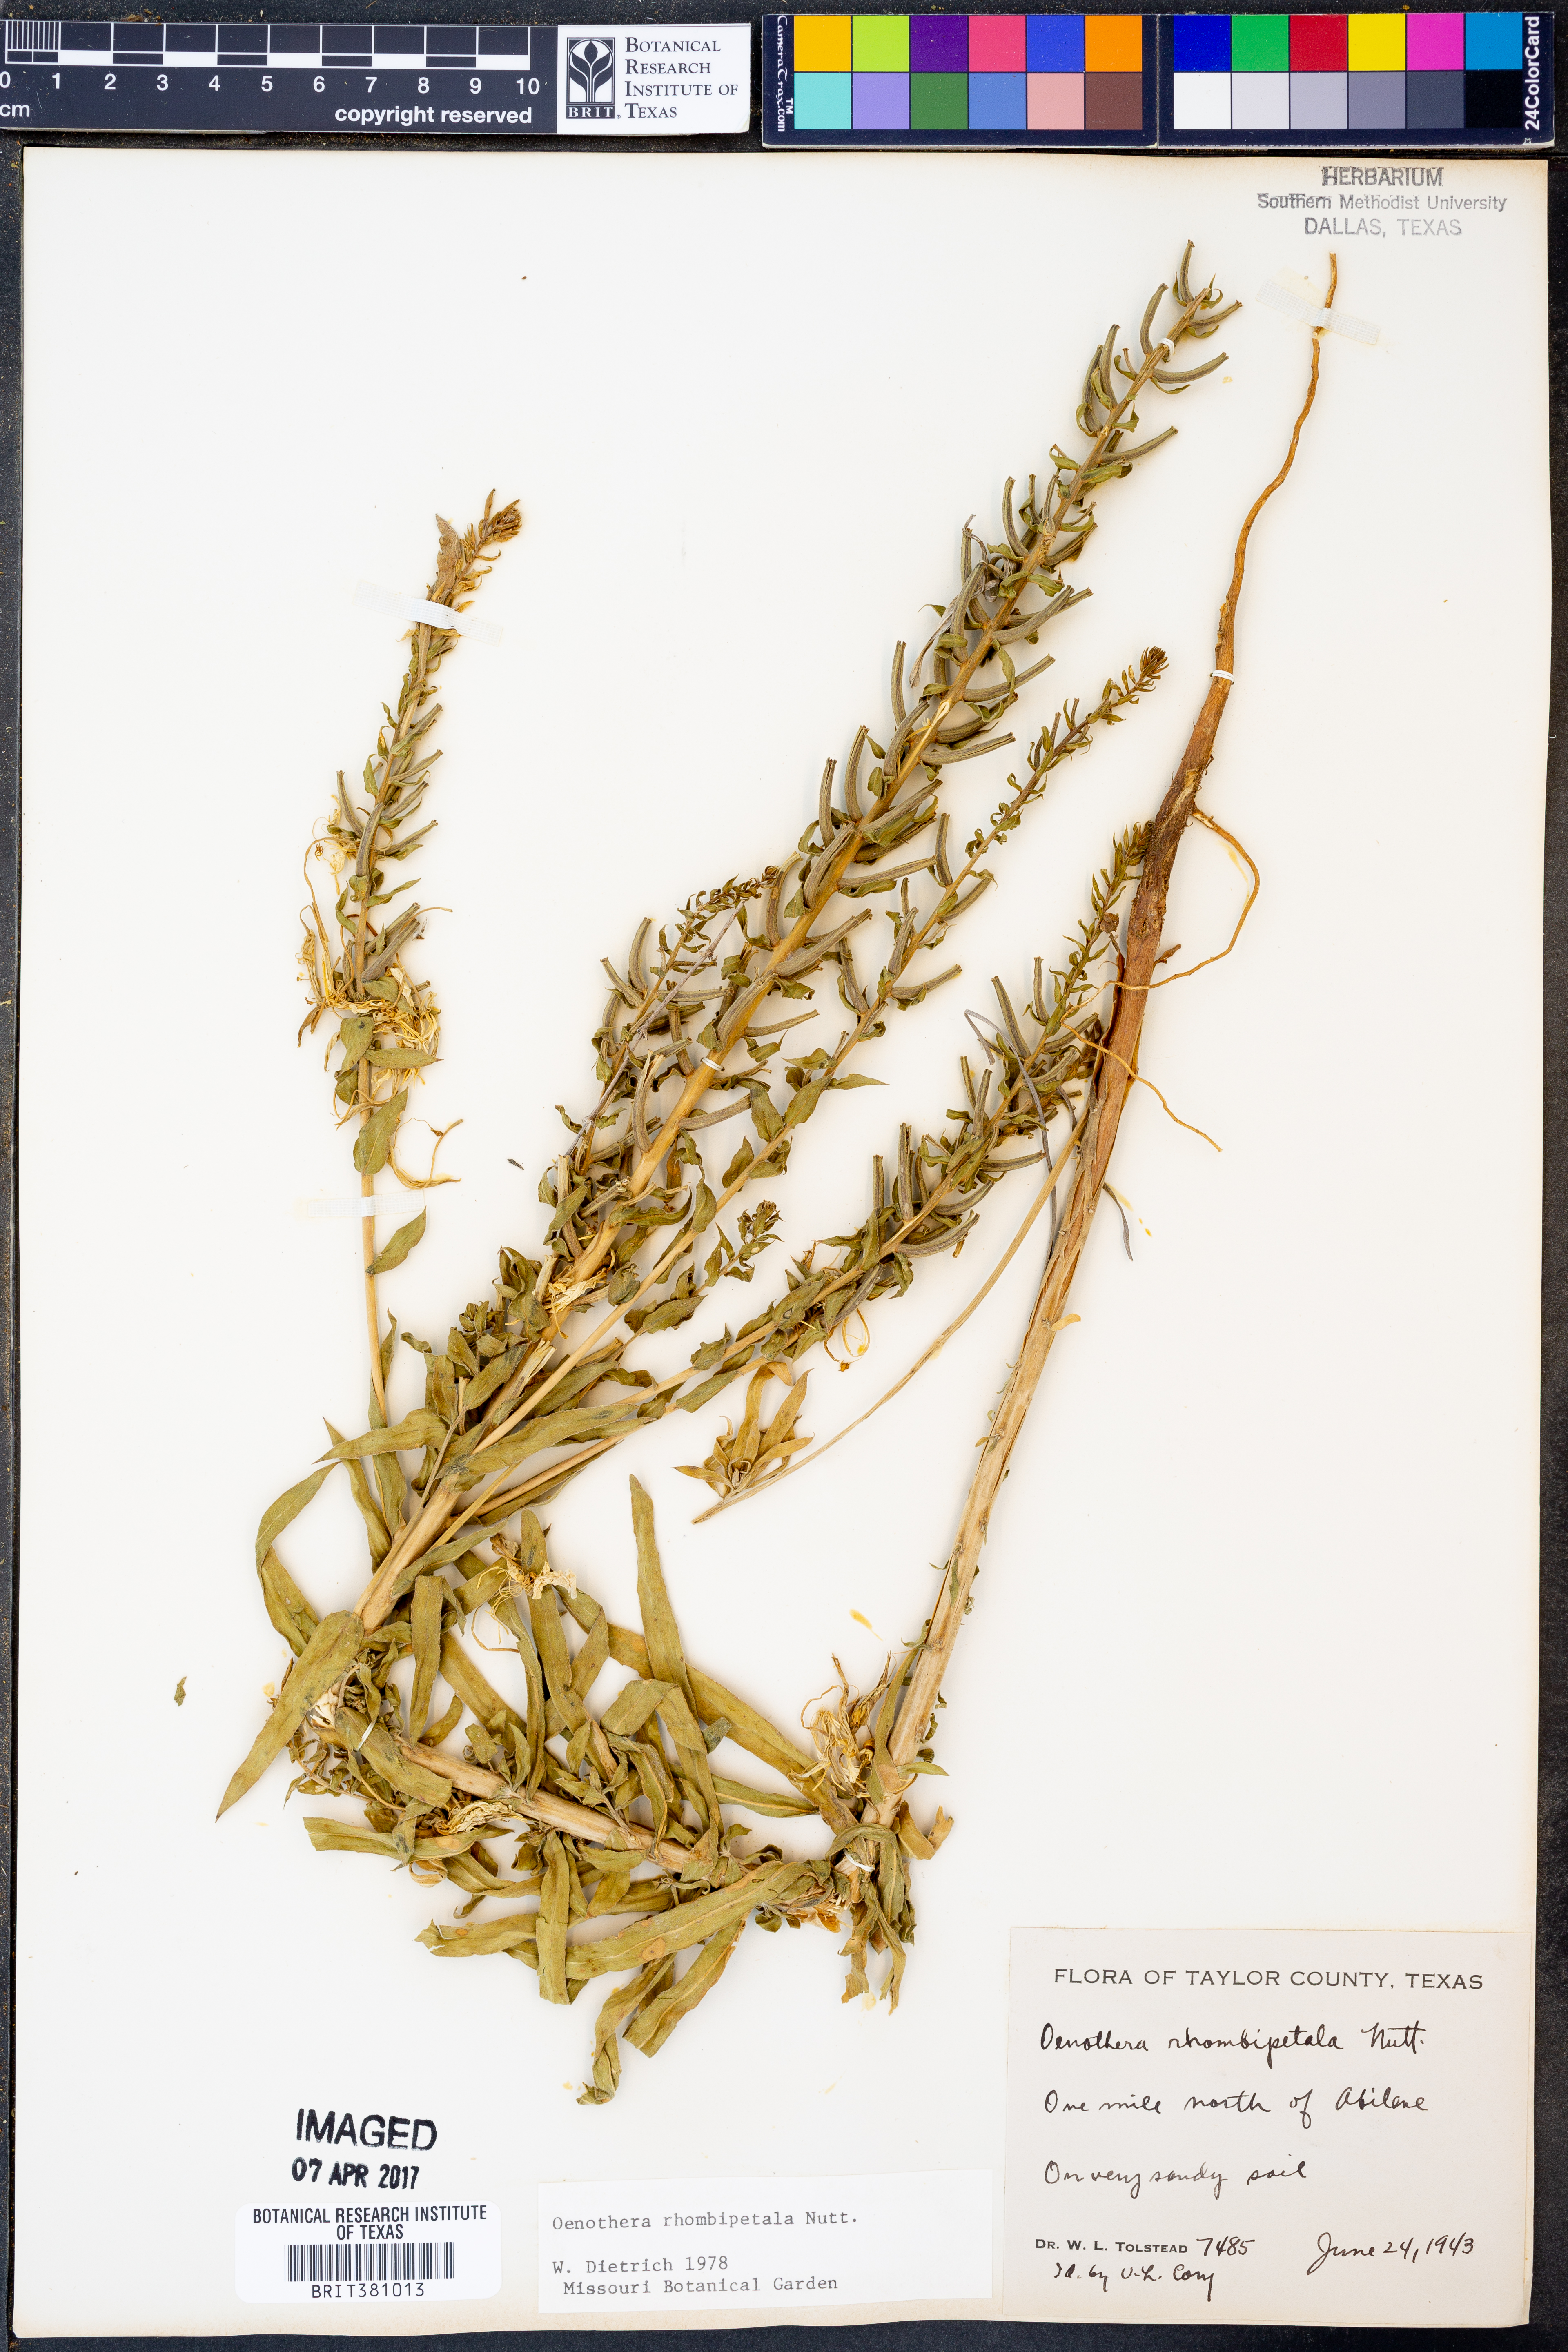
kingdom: Plantae
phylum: Tracheophyta
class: Magnoliopsida
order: Myrtales
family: Onagraceae
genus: Oenothera
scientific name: Oenothera rhombipetala
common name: Four-points evening-primrose
